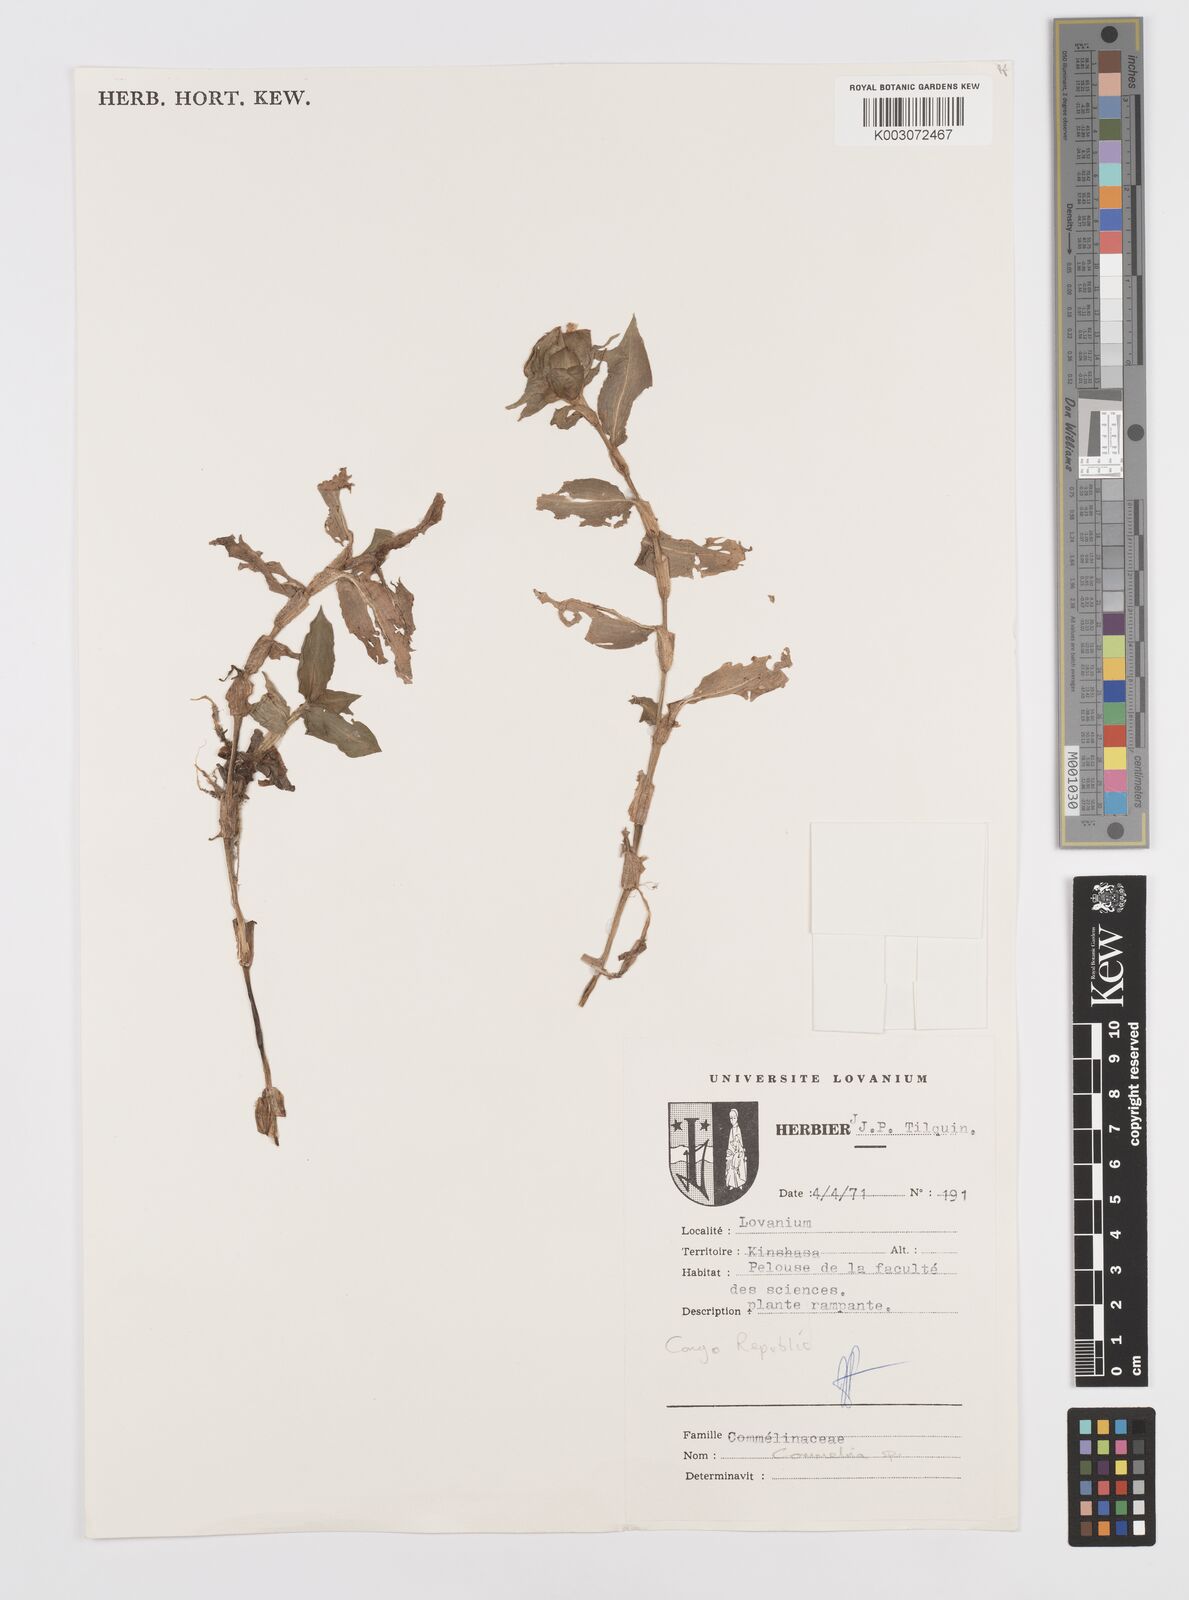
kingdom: Plantae
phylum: Tracheophyta
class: Liliopsida
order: Commelinales
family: Commelinaceae
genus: Commelina
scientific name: Commelina
